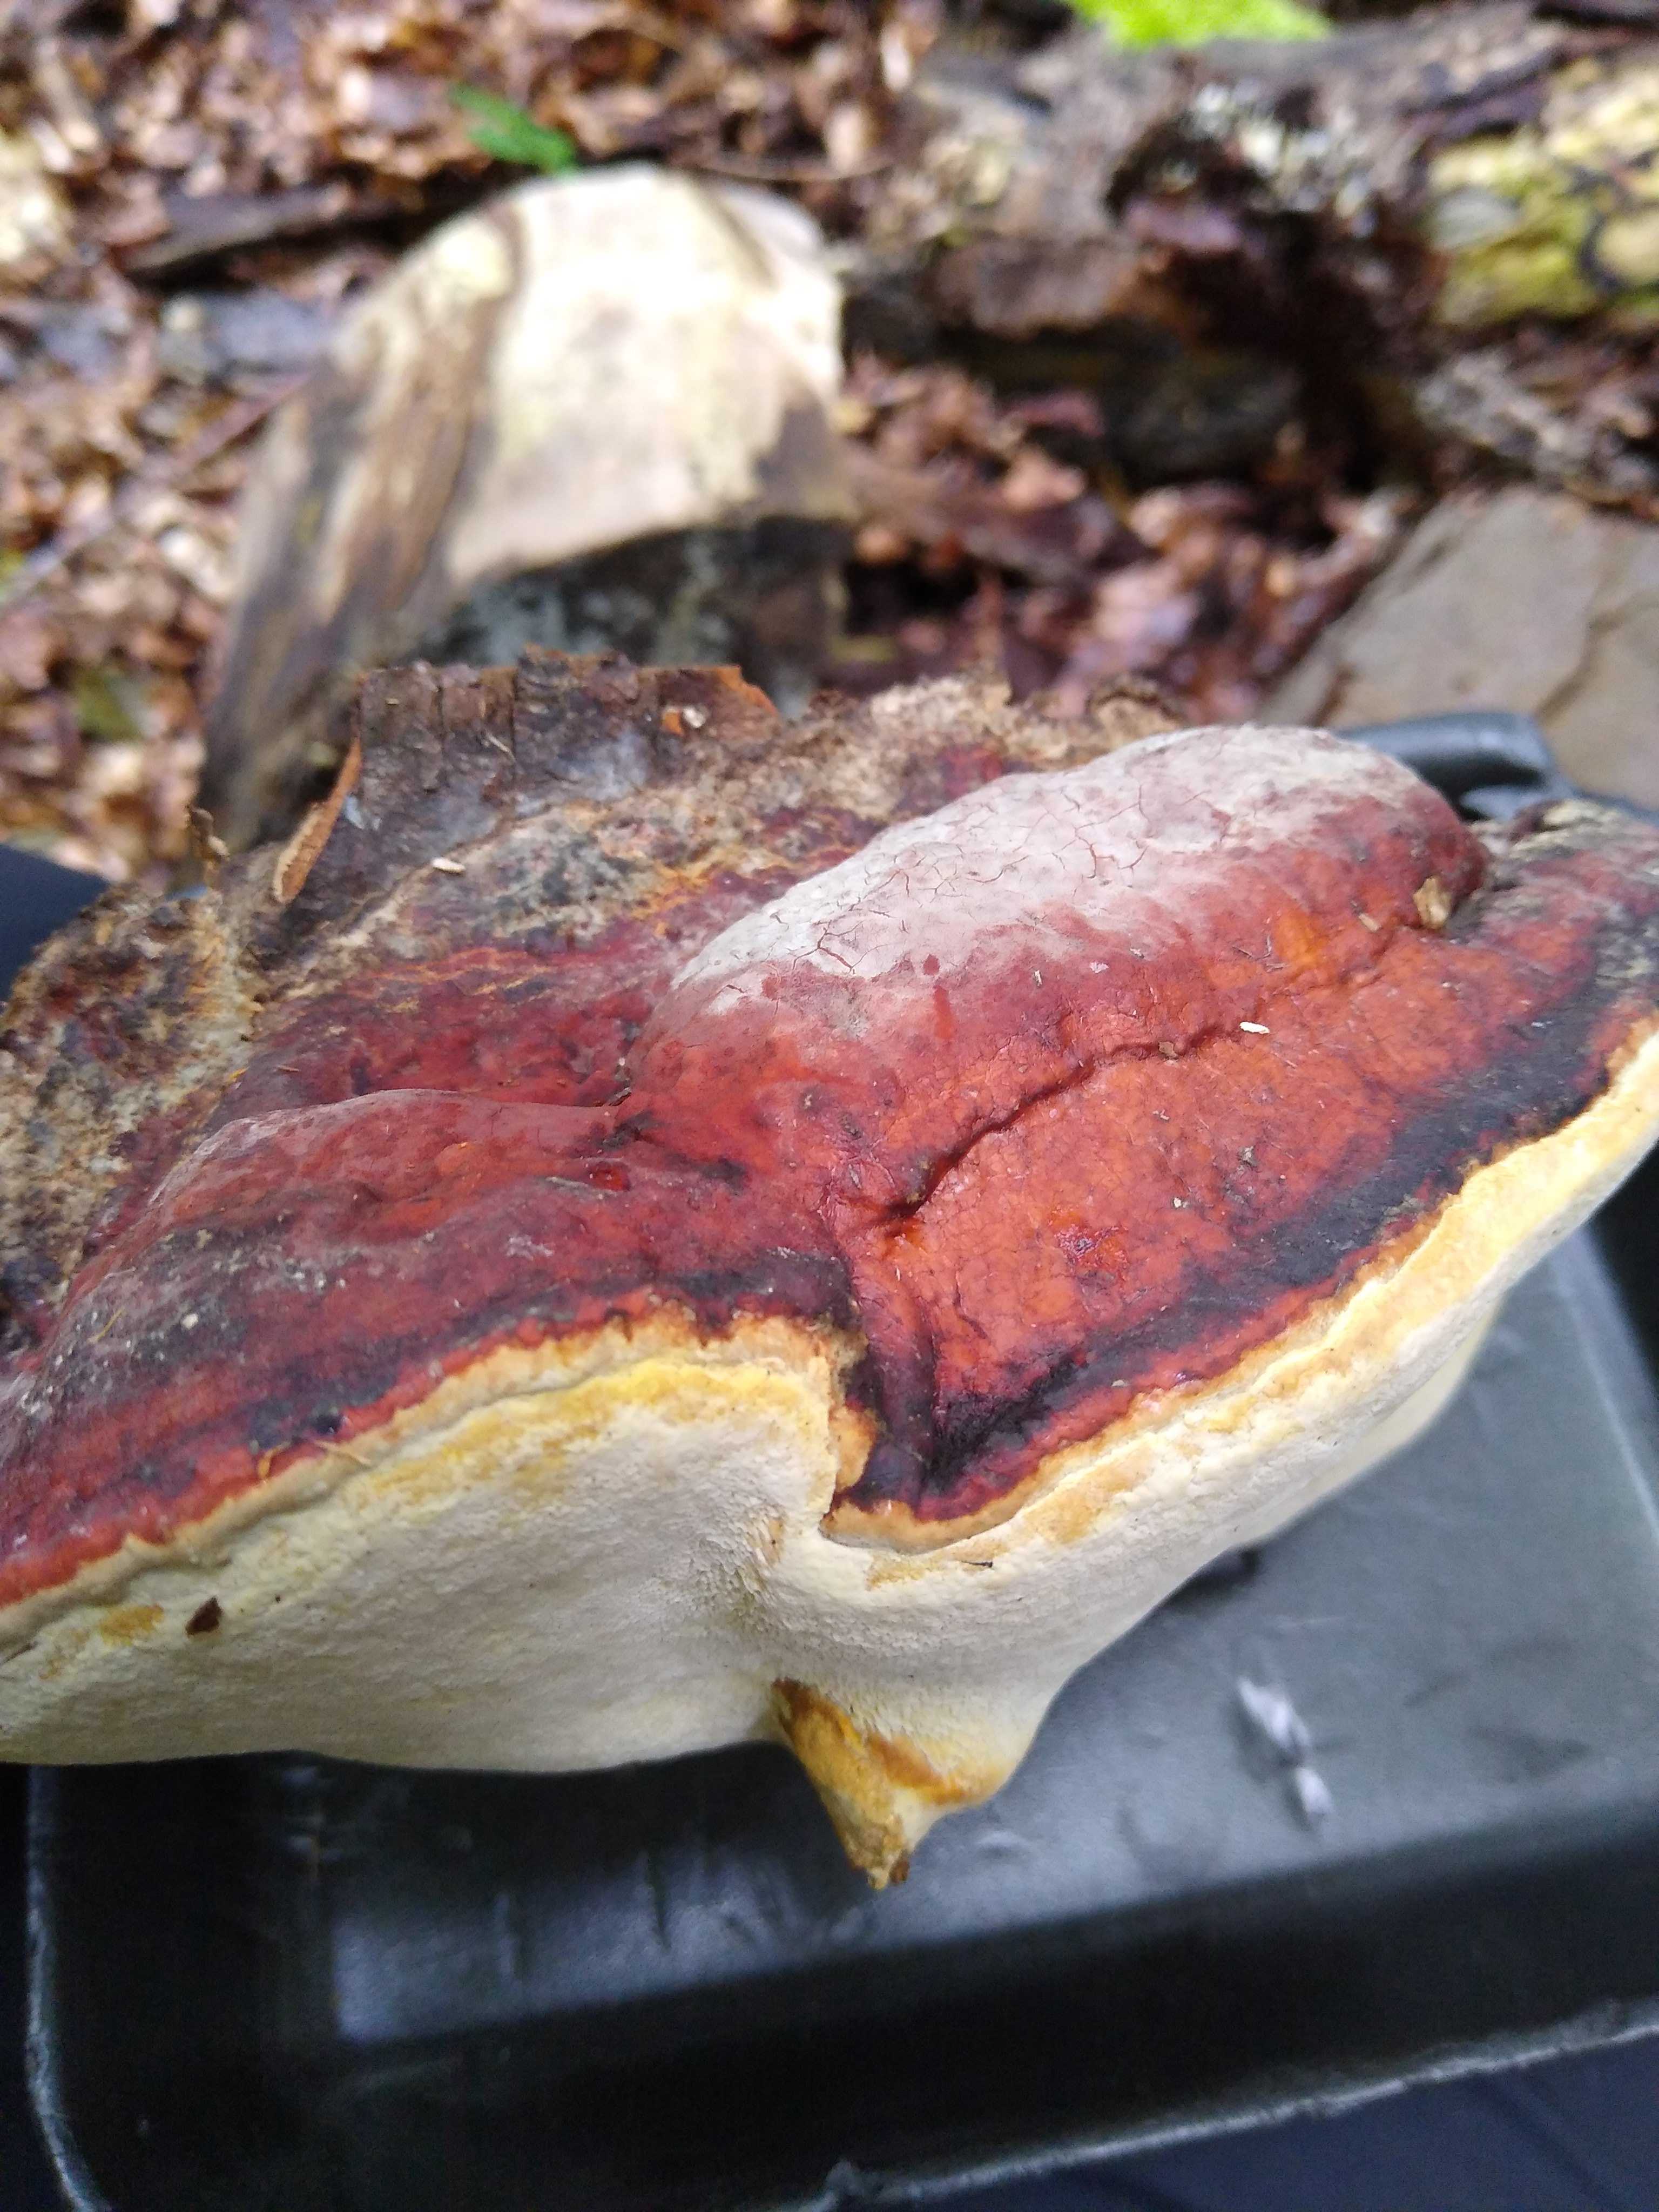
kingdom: Fungi
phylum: Basidiomycota
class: Agaricomycetes
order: Polyporales
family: Fomitopsidaceae
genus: Fomitopsis
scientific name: Fomitopsis pinicola
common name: randbæltet hovporesvamp
